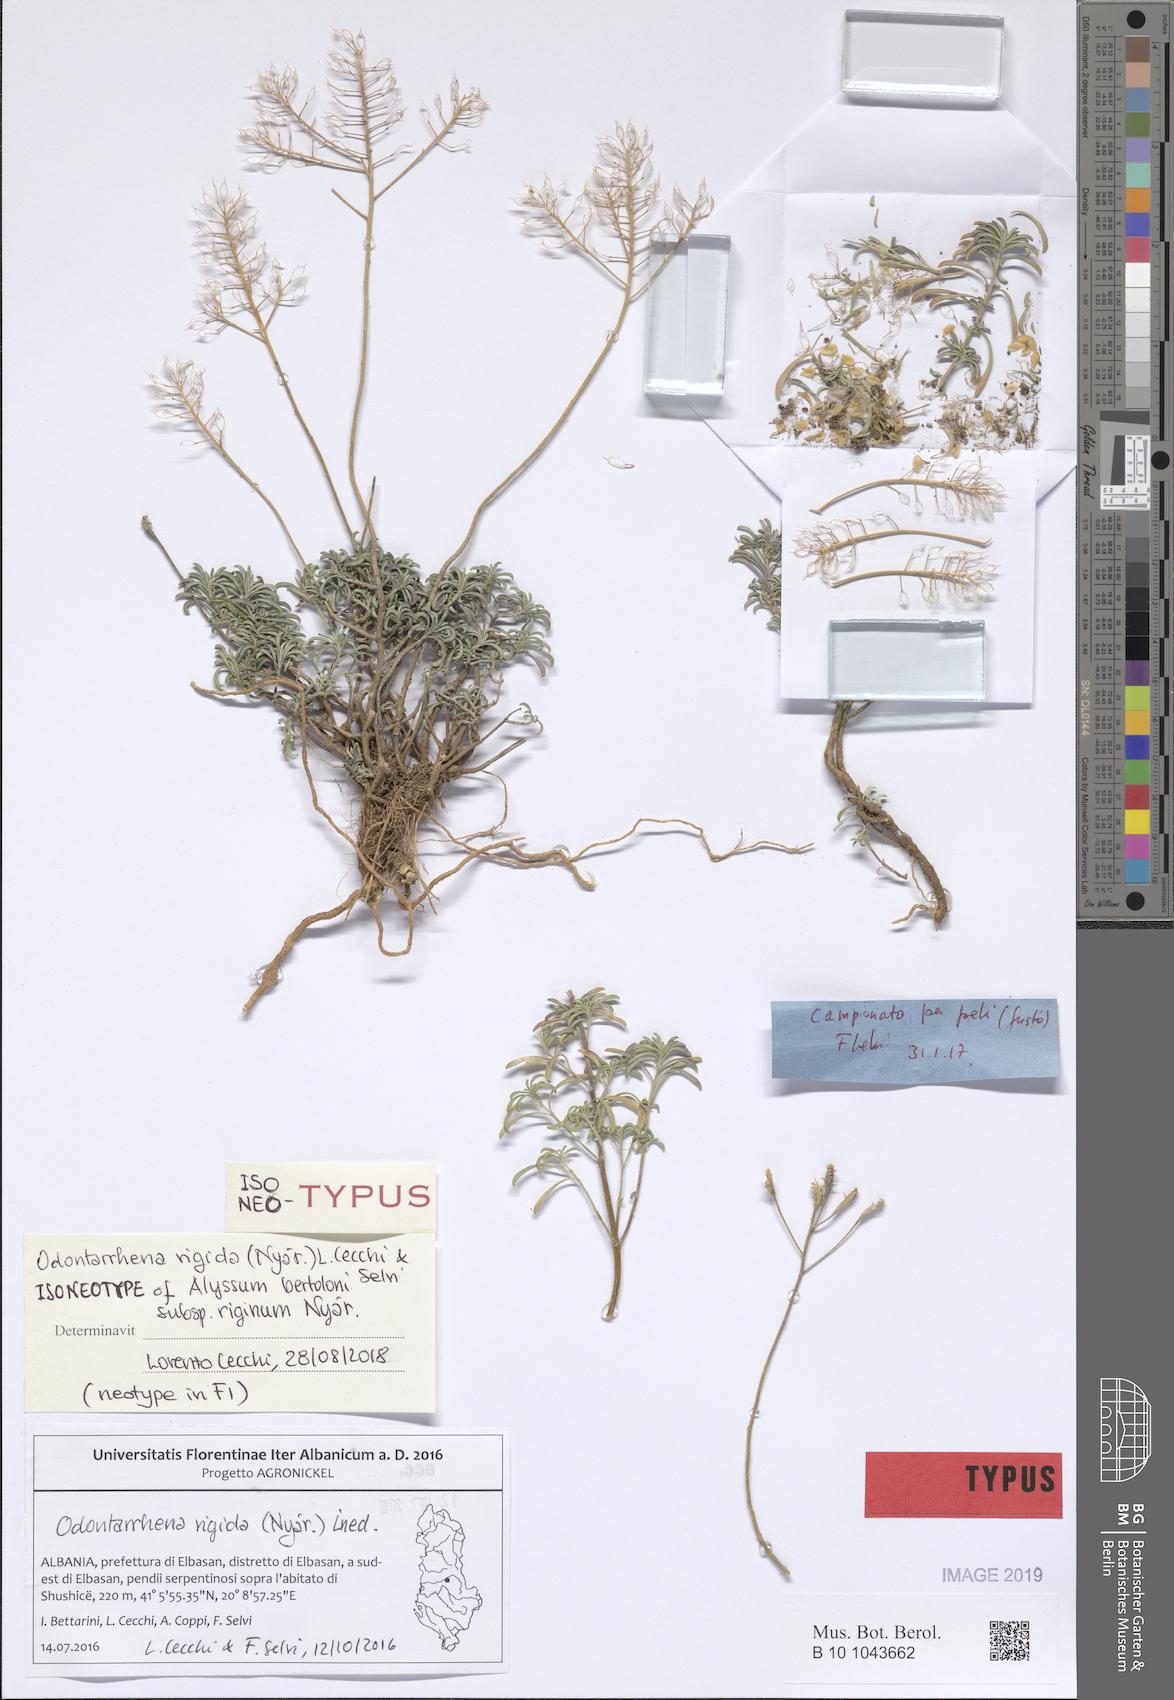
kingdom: Plantae
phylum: Tracheophyta
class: Magnoliopsida
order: Brassicales
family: Brassicaceae
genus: Odontarrhena
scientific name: Odontarrhena rigida
